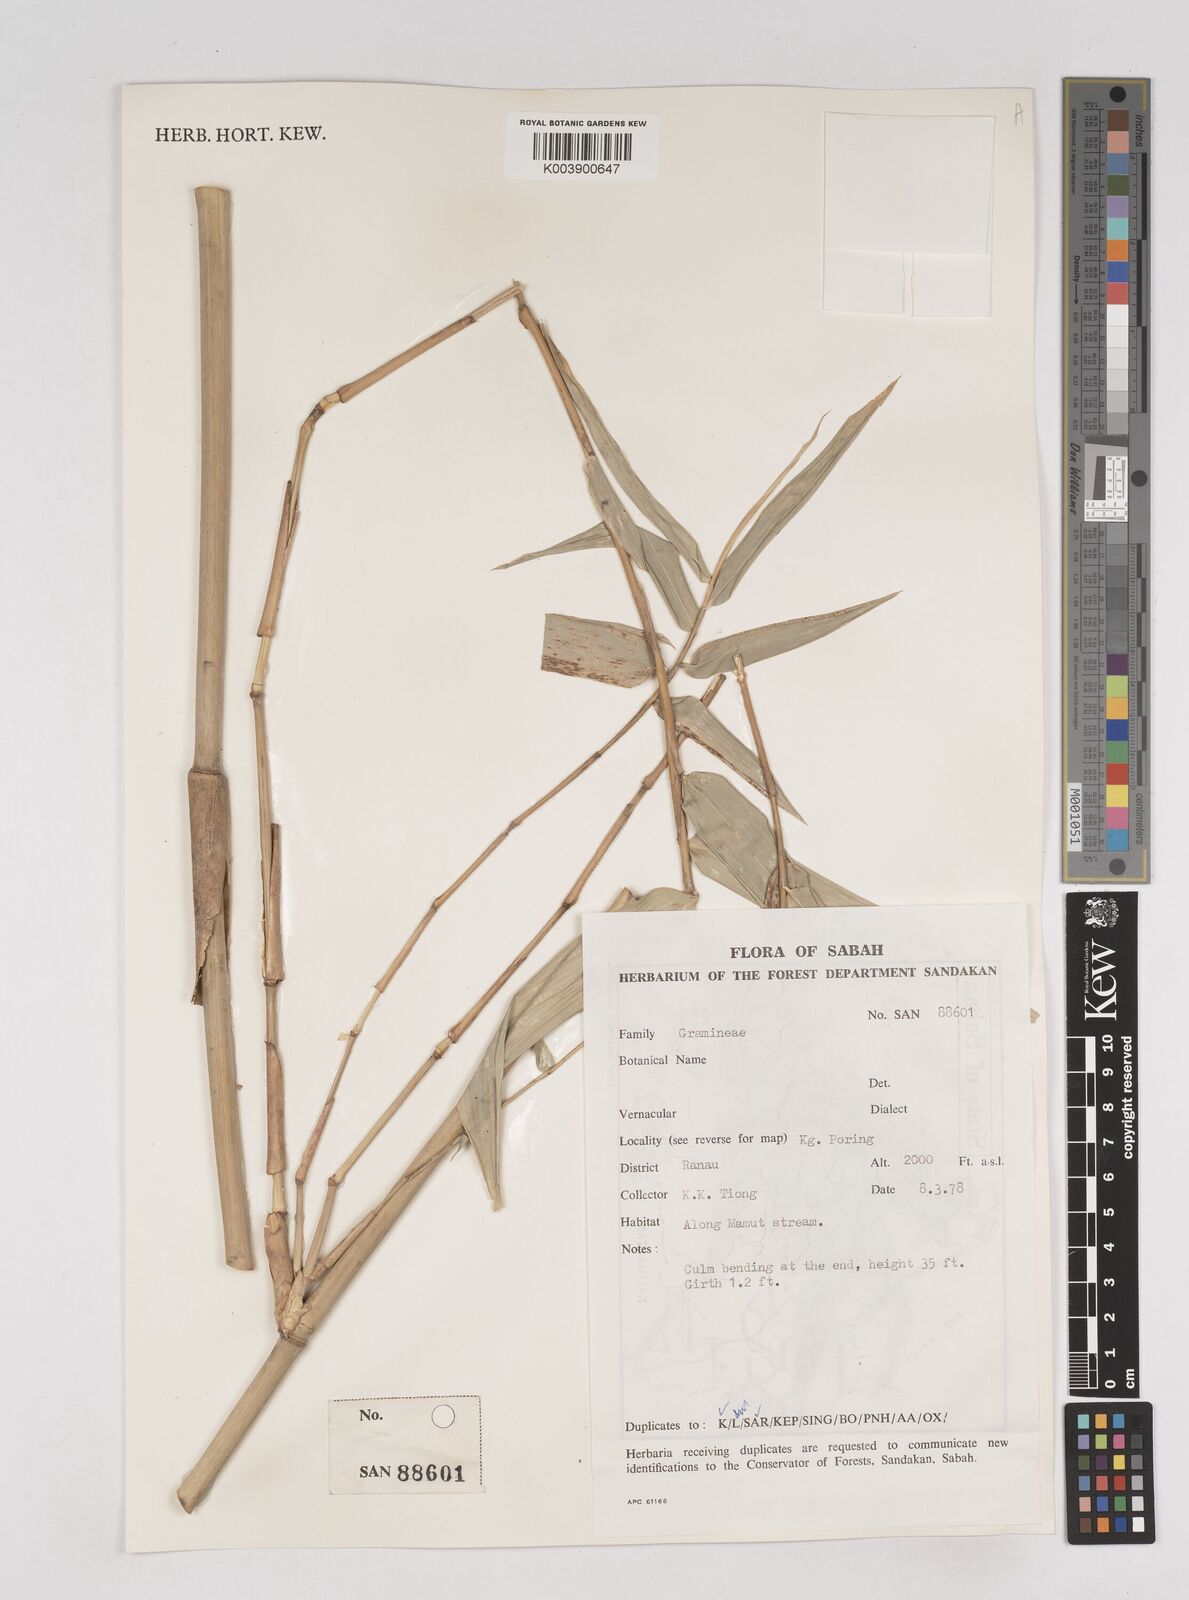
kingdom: Plantae
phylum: Tracheophyta
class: Liliopsida
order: Poales
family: Poaceae
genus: Gigantochloa
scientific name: Gigantochloa
